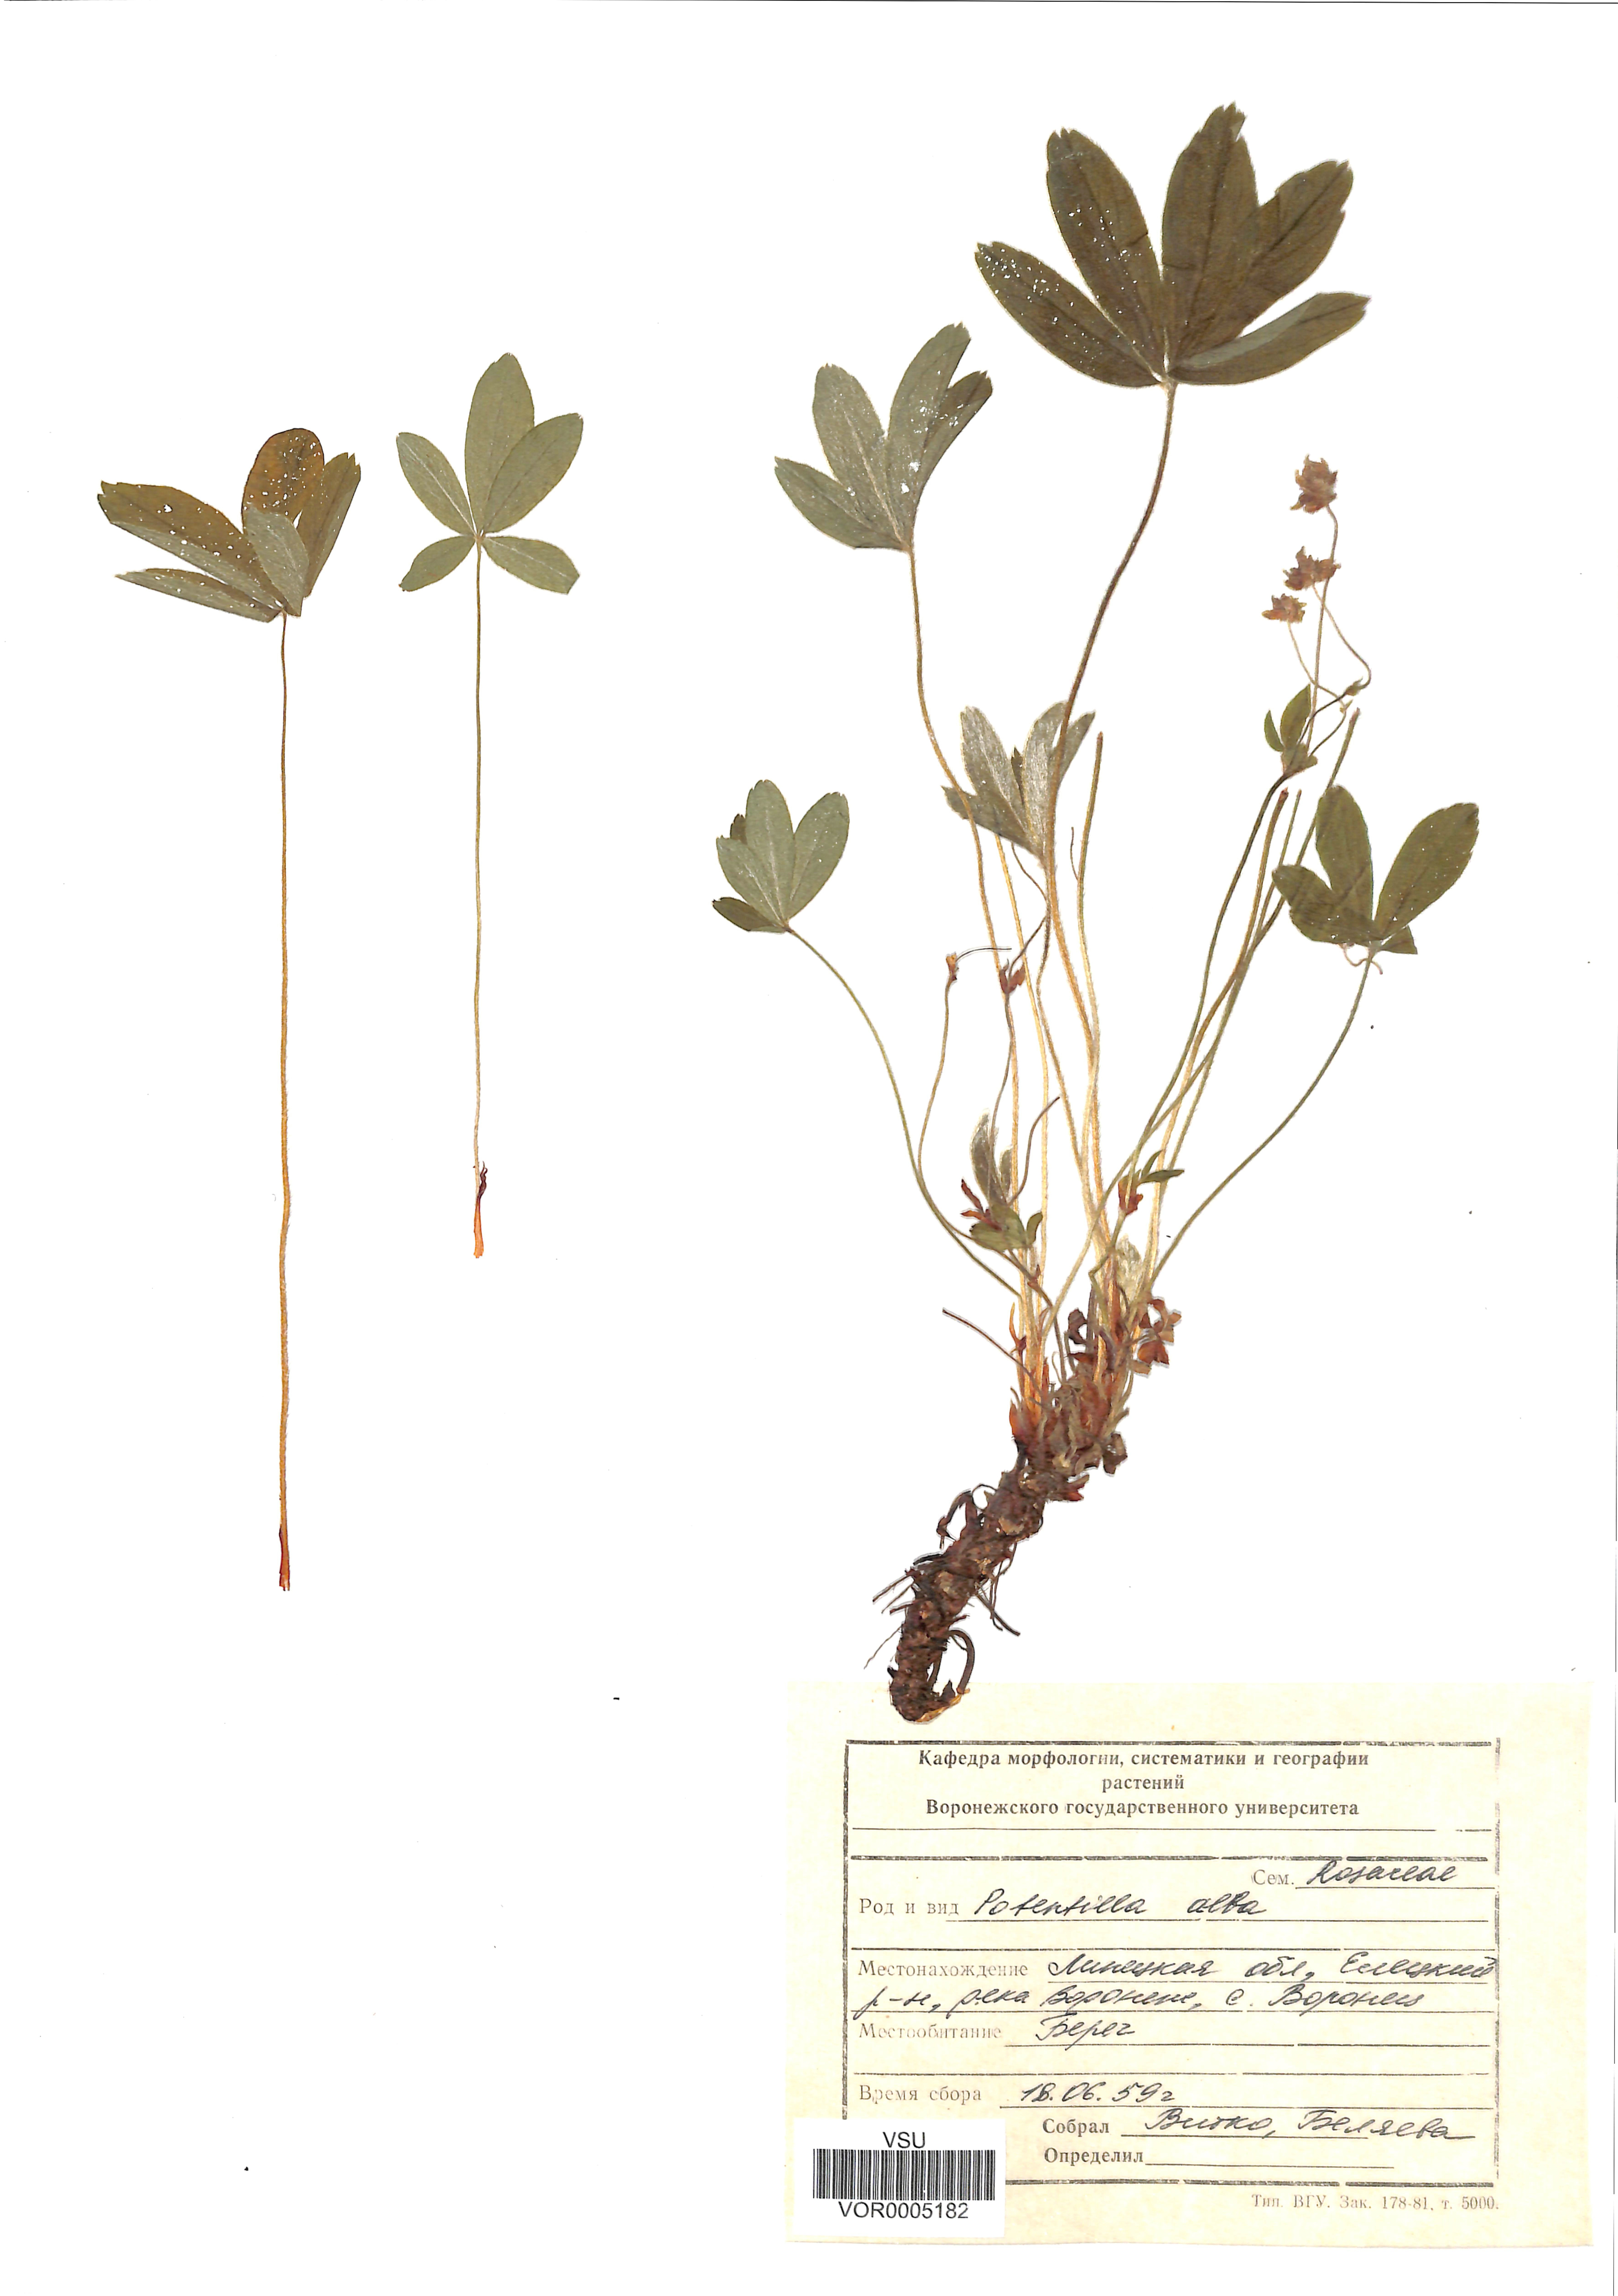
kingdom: Plantae
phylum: Tracheophyta
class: Magnoliopsida
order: Rosales
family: Rosaceae
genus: Potentilla
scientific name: Potentilla alba
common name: White cinquefoil
